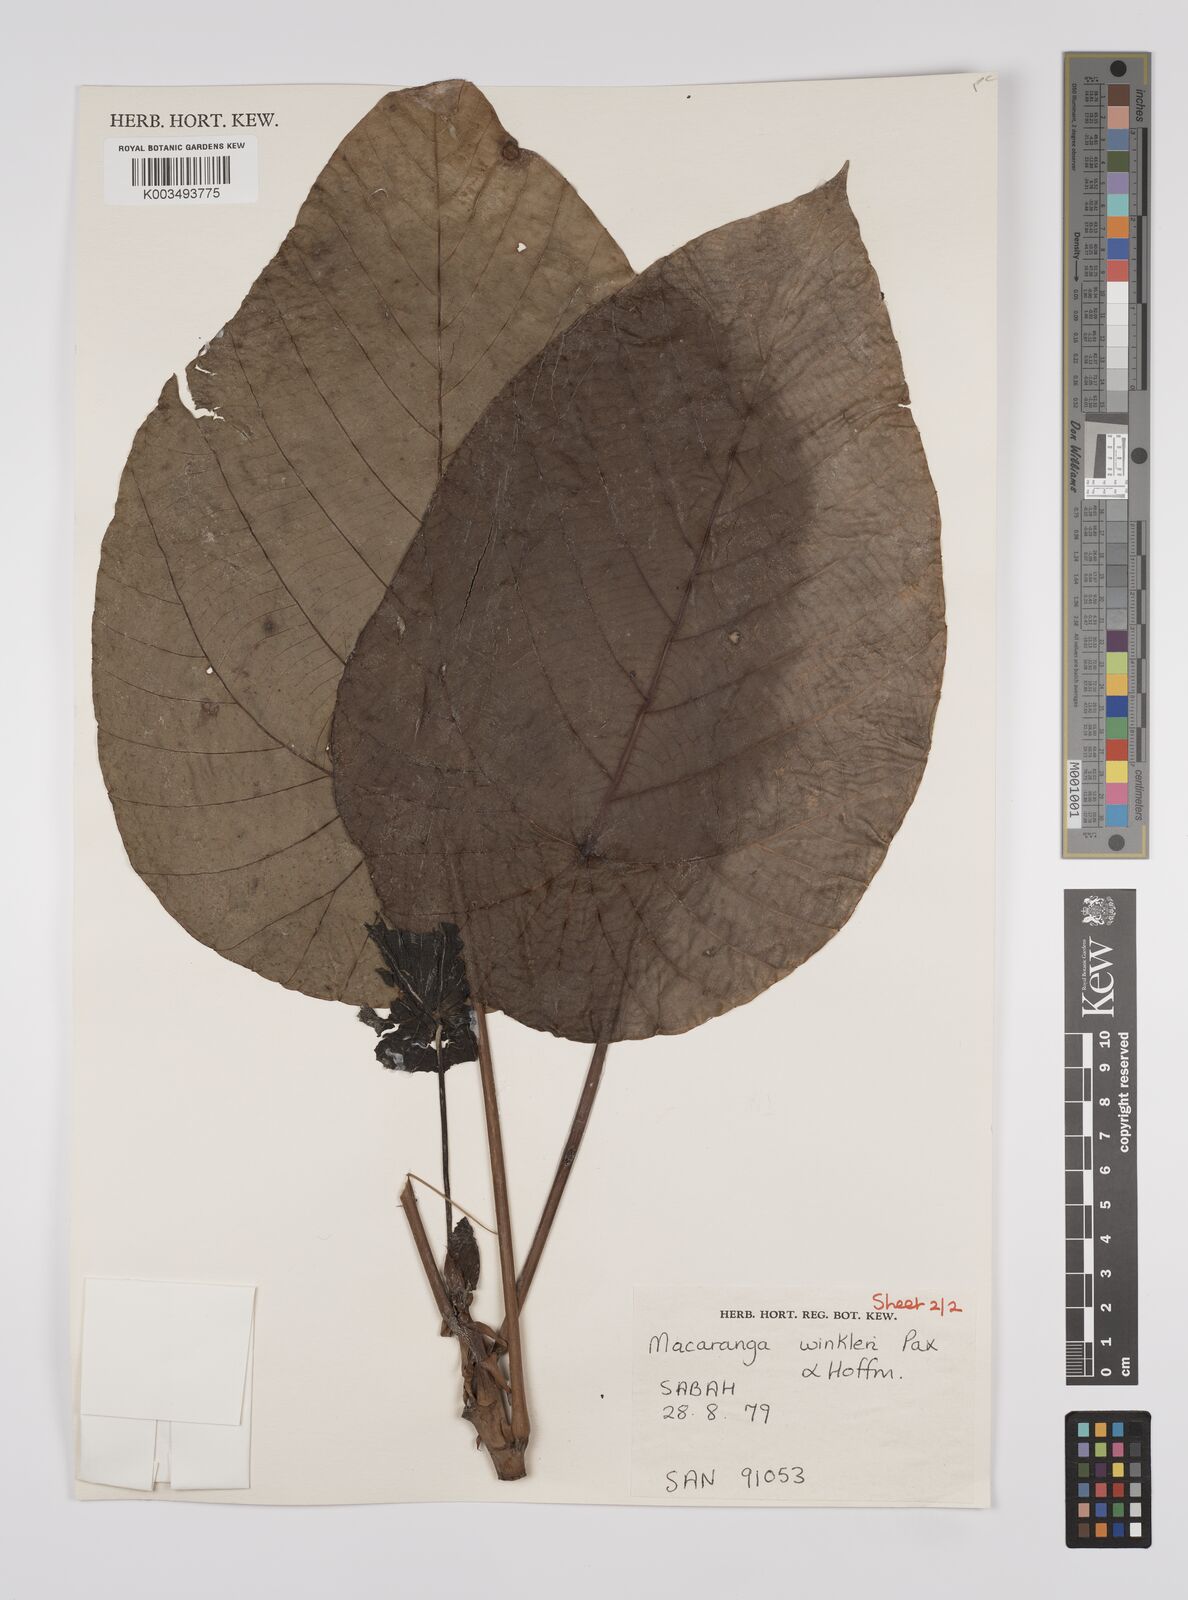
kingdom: Plantae
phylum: Tracheophyta
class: Magnoliopsida
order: Malpighiales
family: Euphorbiaceae
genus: Macaranga
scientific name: Macaranga winkleri
